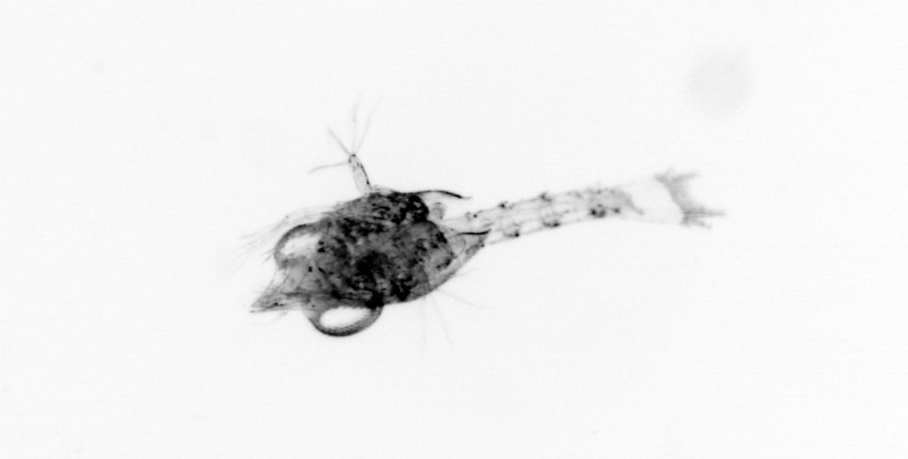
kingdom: Animalia
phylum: Arthropoda
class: Malacostraca
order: Decapoda
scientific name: Decapoda
